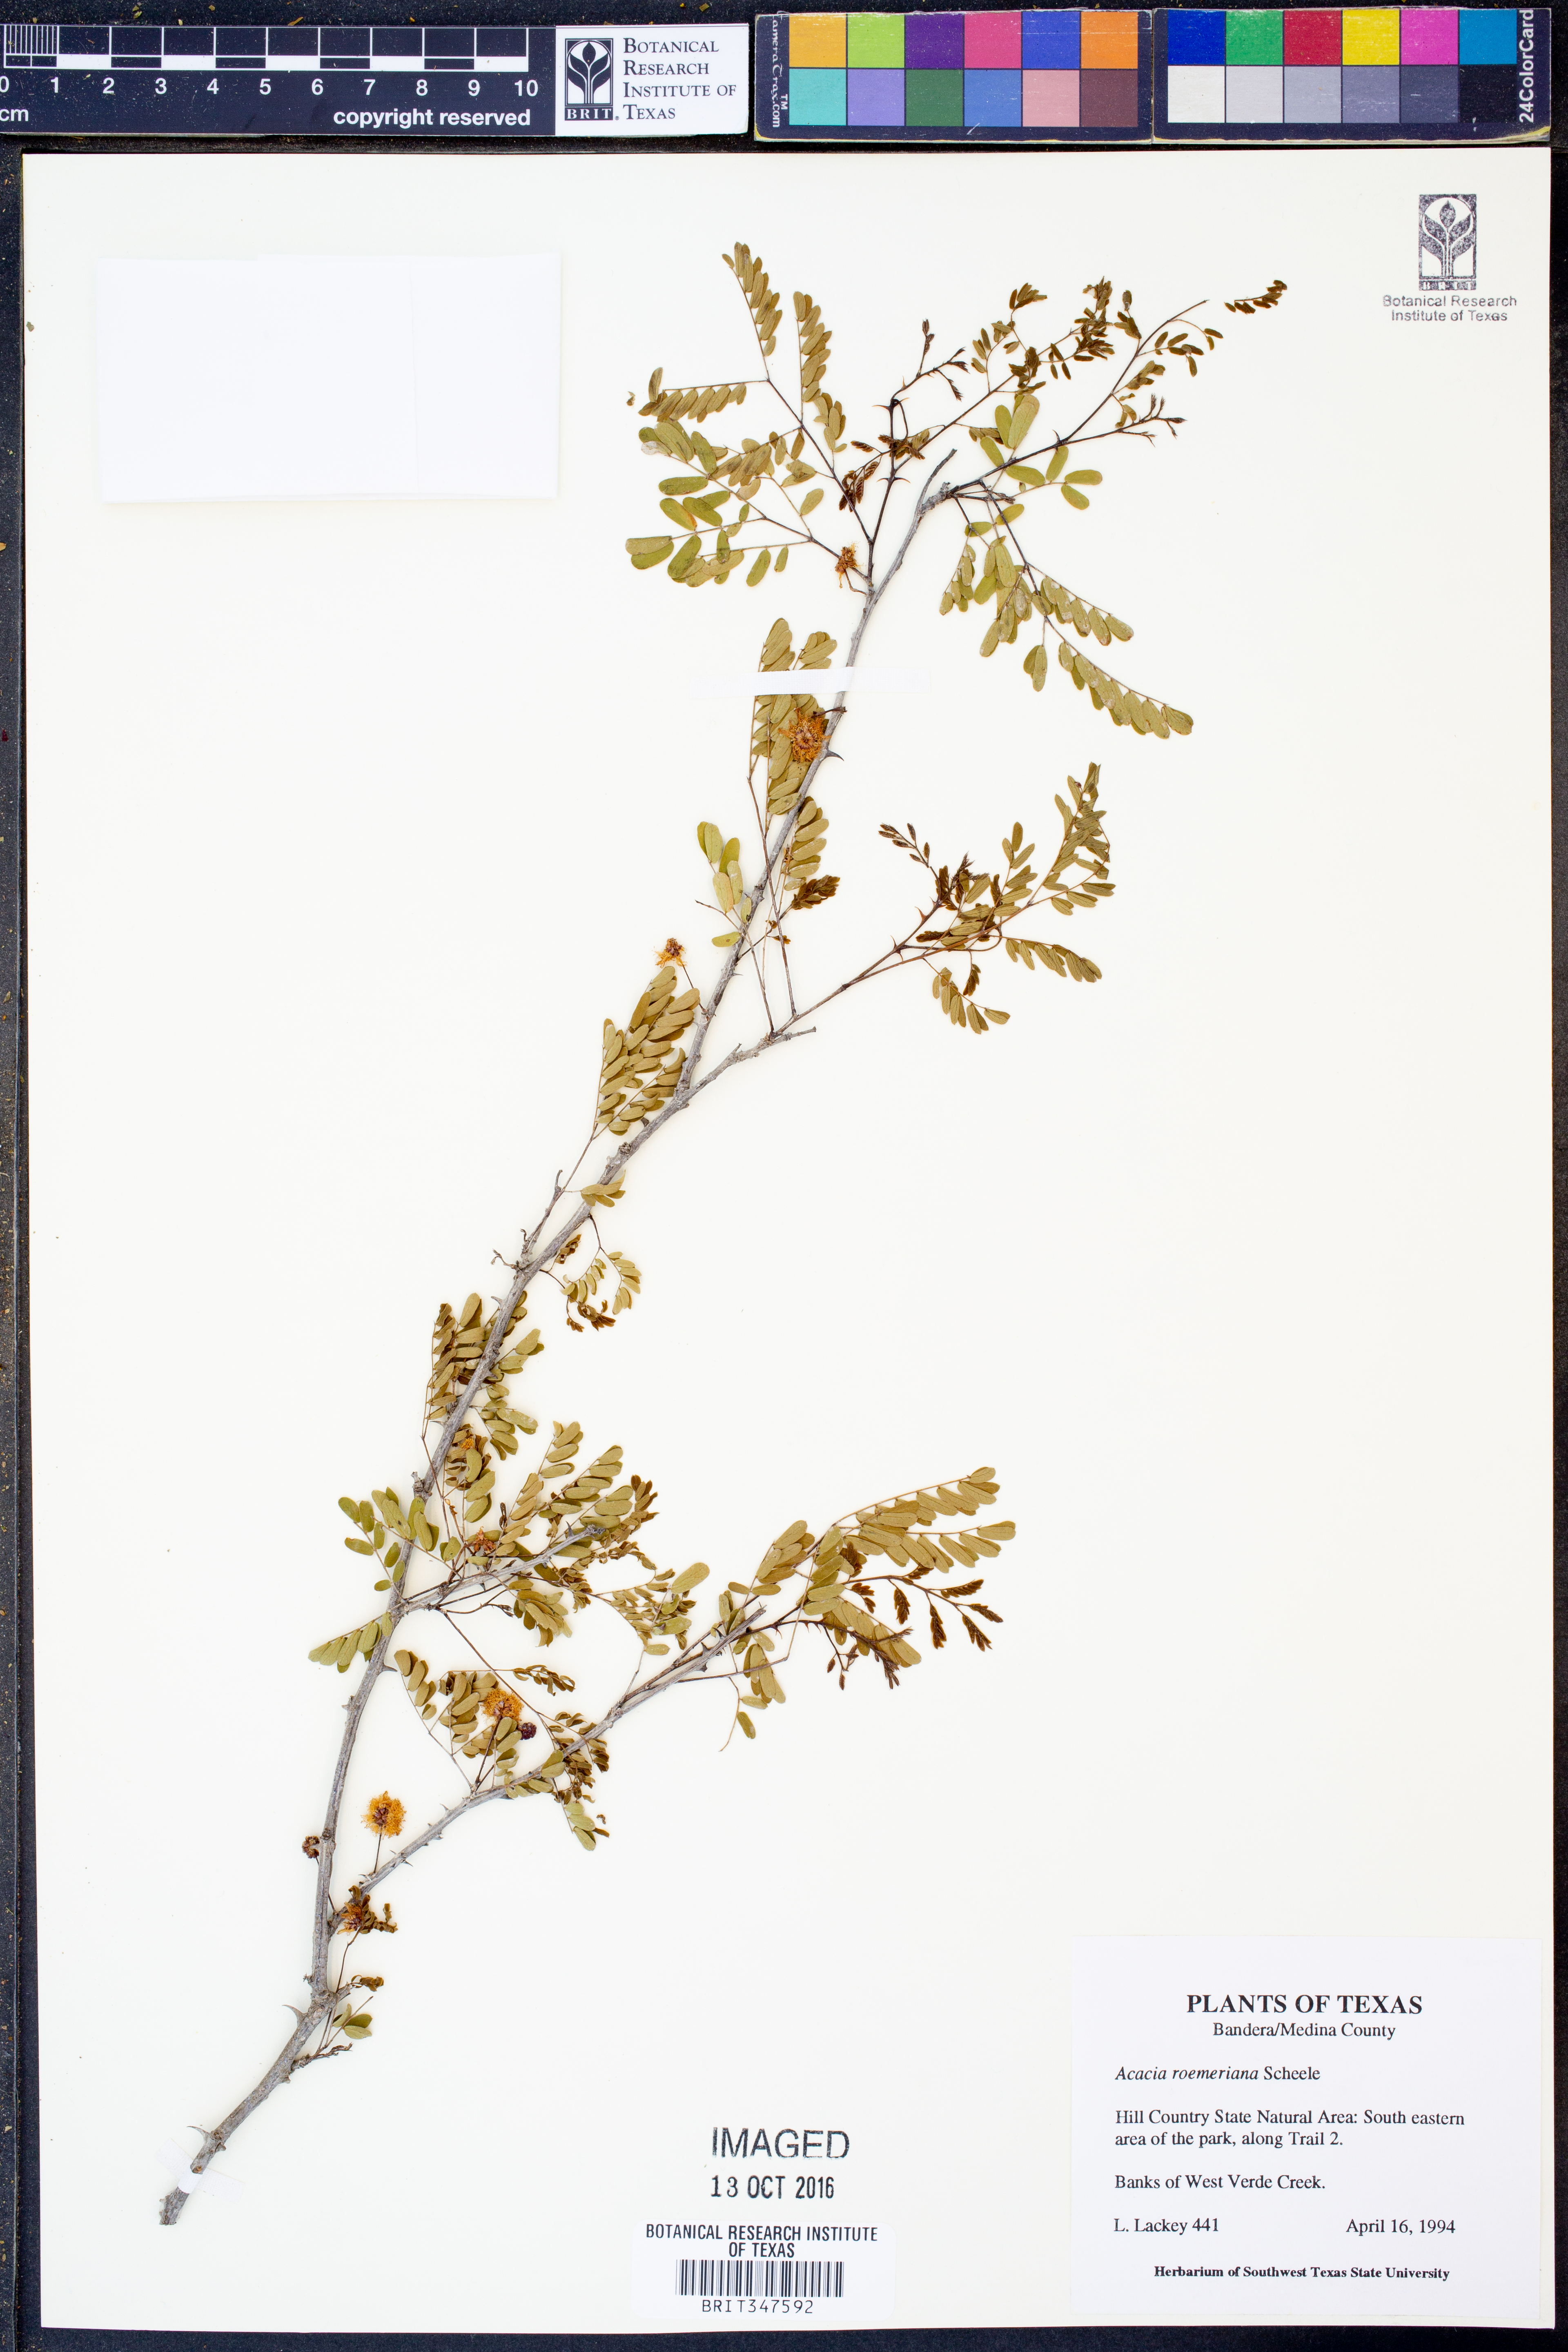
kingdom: Plantae
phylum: Tracheophyta
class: Magnoliopsida
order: Fabales
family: Fabaceae
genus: Senegalia
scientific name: Senegalia roemeriana
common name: Roemer's acacia
